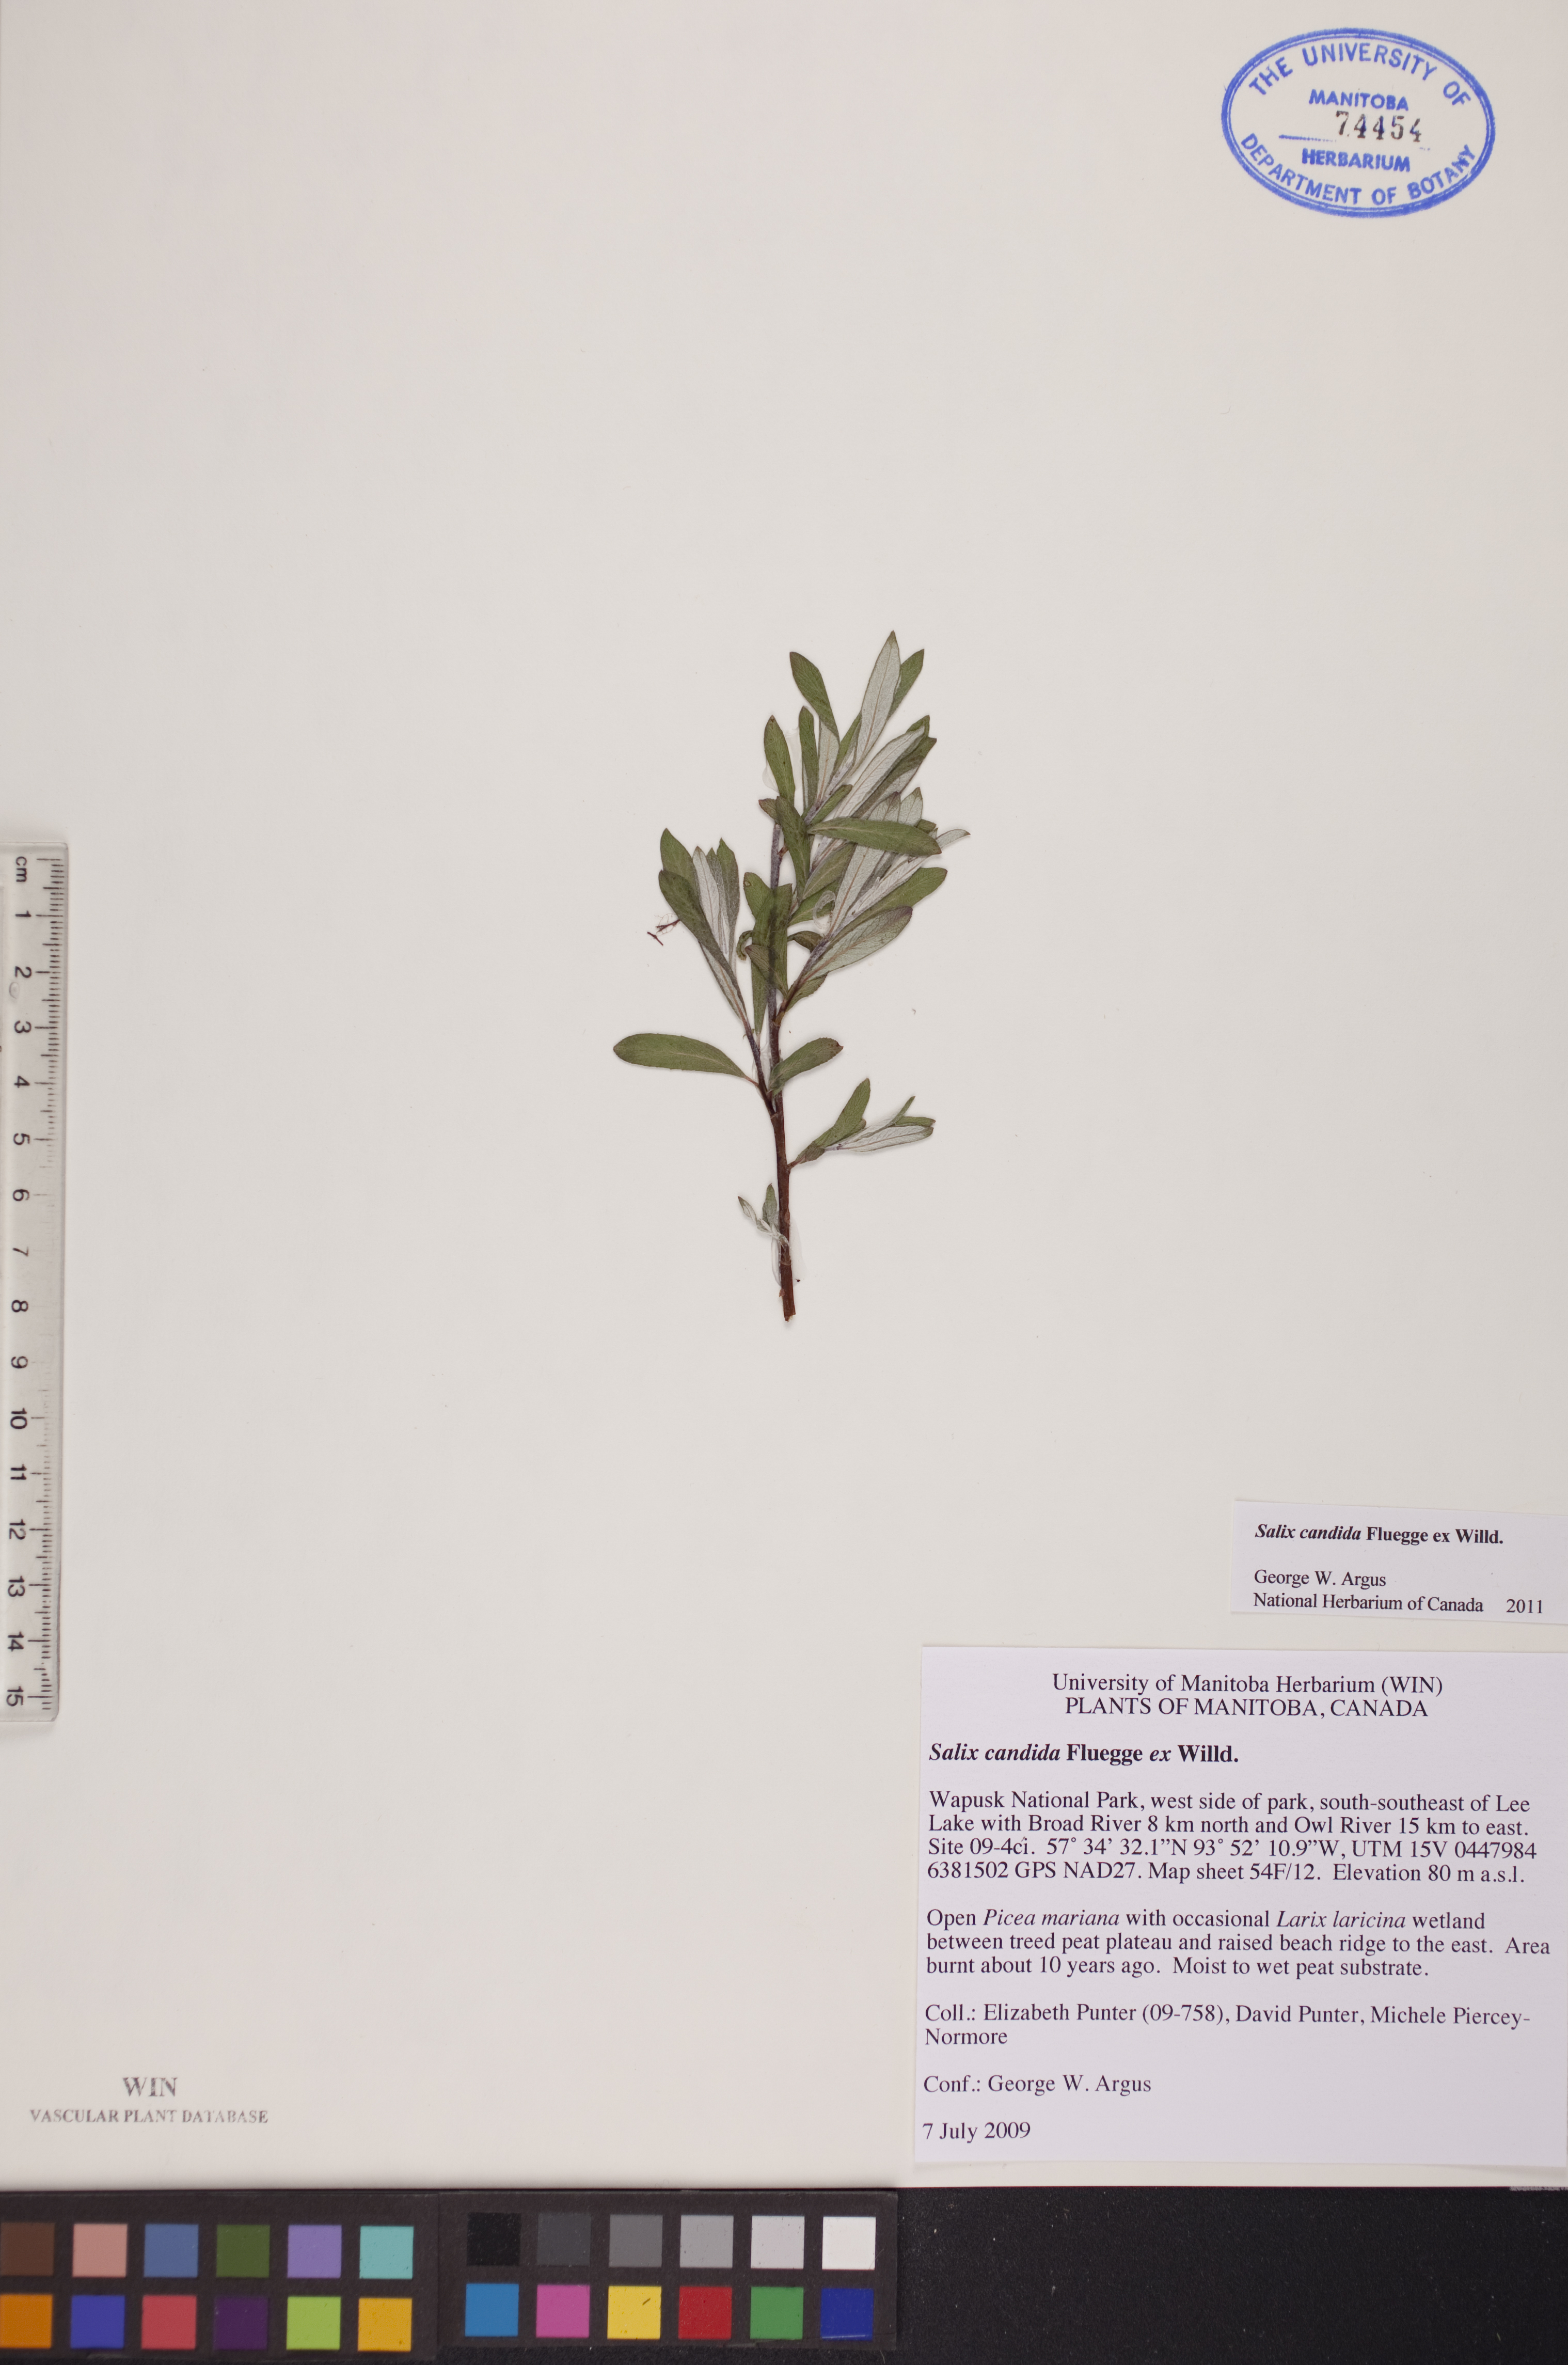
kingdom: Plantae
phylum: Tracheophyta
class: Magnoliopsida
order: Malpighiales
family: Salicaceae
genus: Salix
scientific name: Salix candida
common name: Hoary willow
